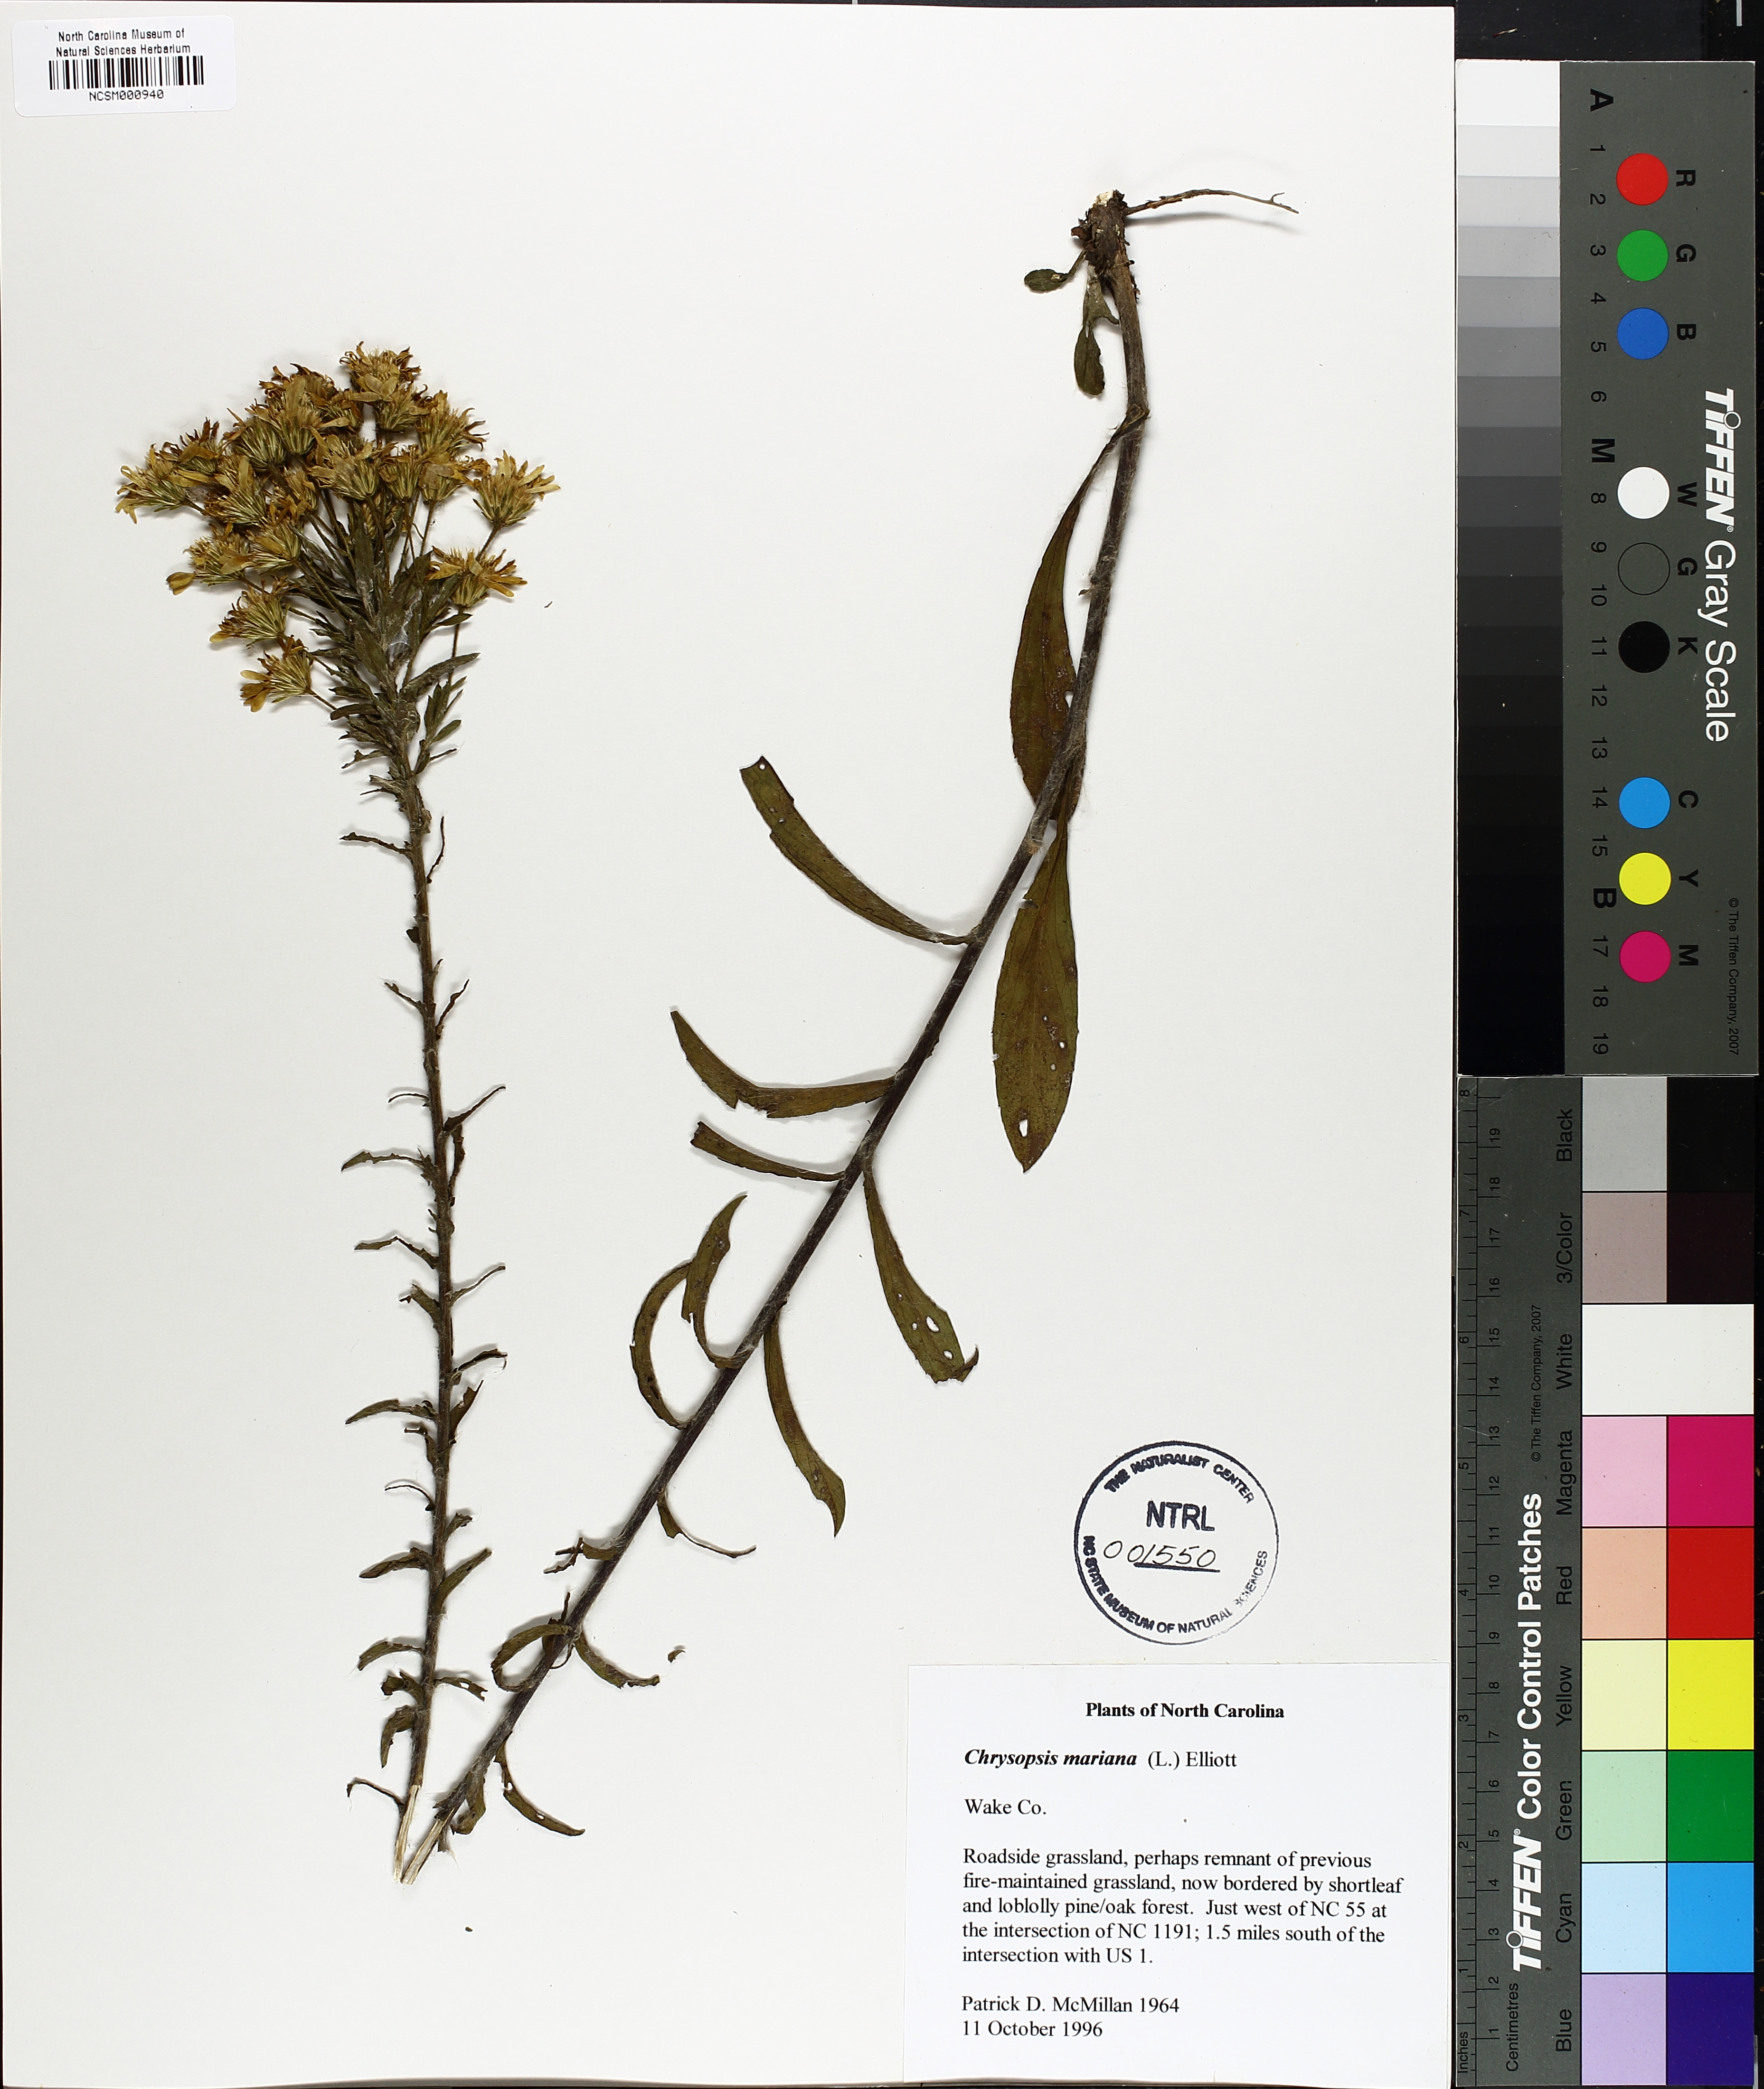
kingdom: Plantae
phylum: Tracheophyta
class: Magnoliopsida
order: Asterales
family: Asteraceae
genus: Chrysopsis
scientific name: Chrysopsis mariana
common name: Maryland golden-aster
